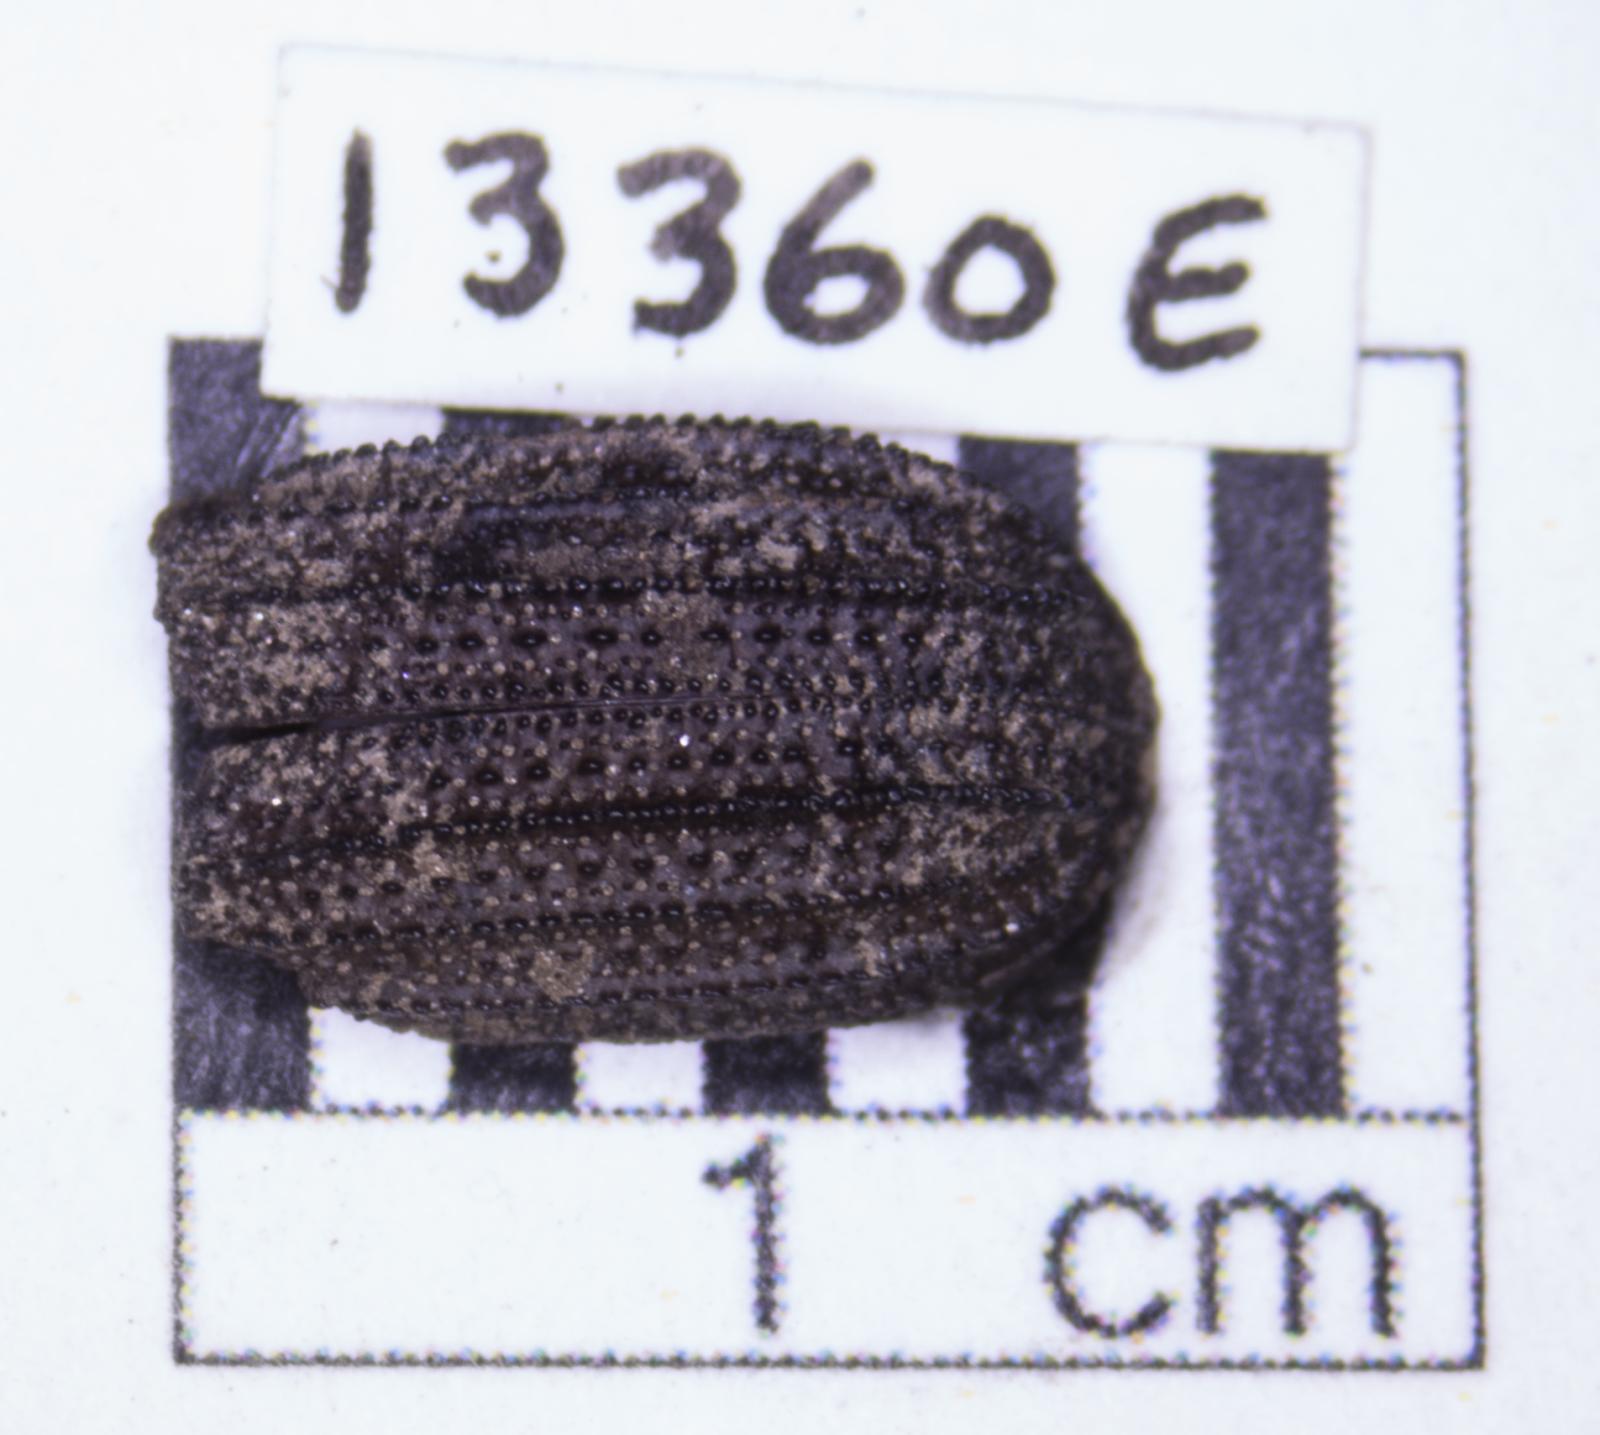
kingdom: Animalia
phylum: Arthropoda
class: Insecta
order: Coleoptera
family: Tenebrionidae
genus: Nyctoporis
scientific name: Nyctoporis carinata
